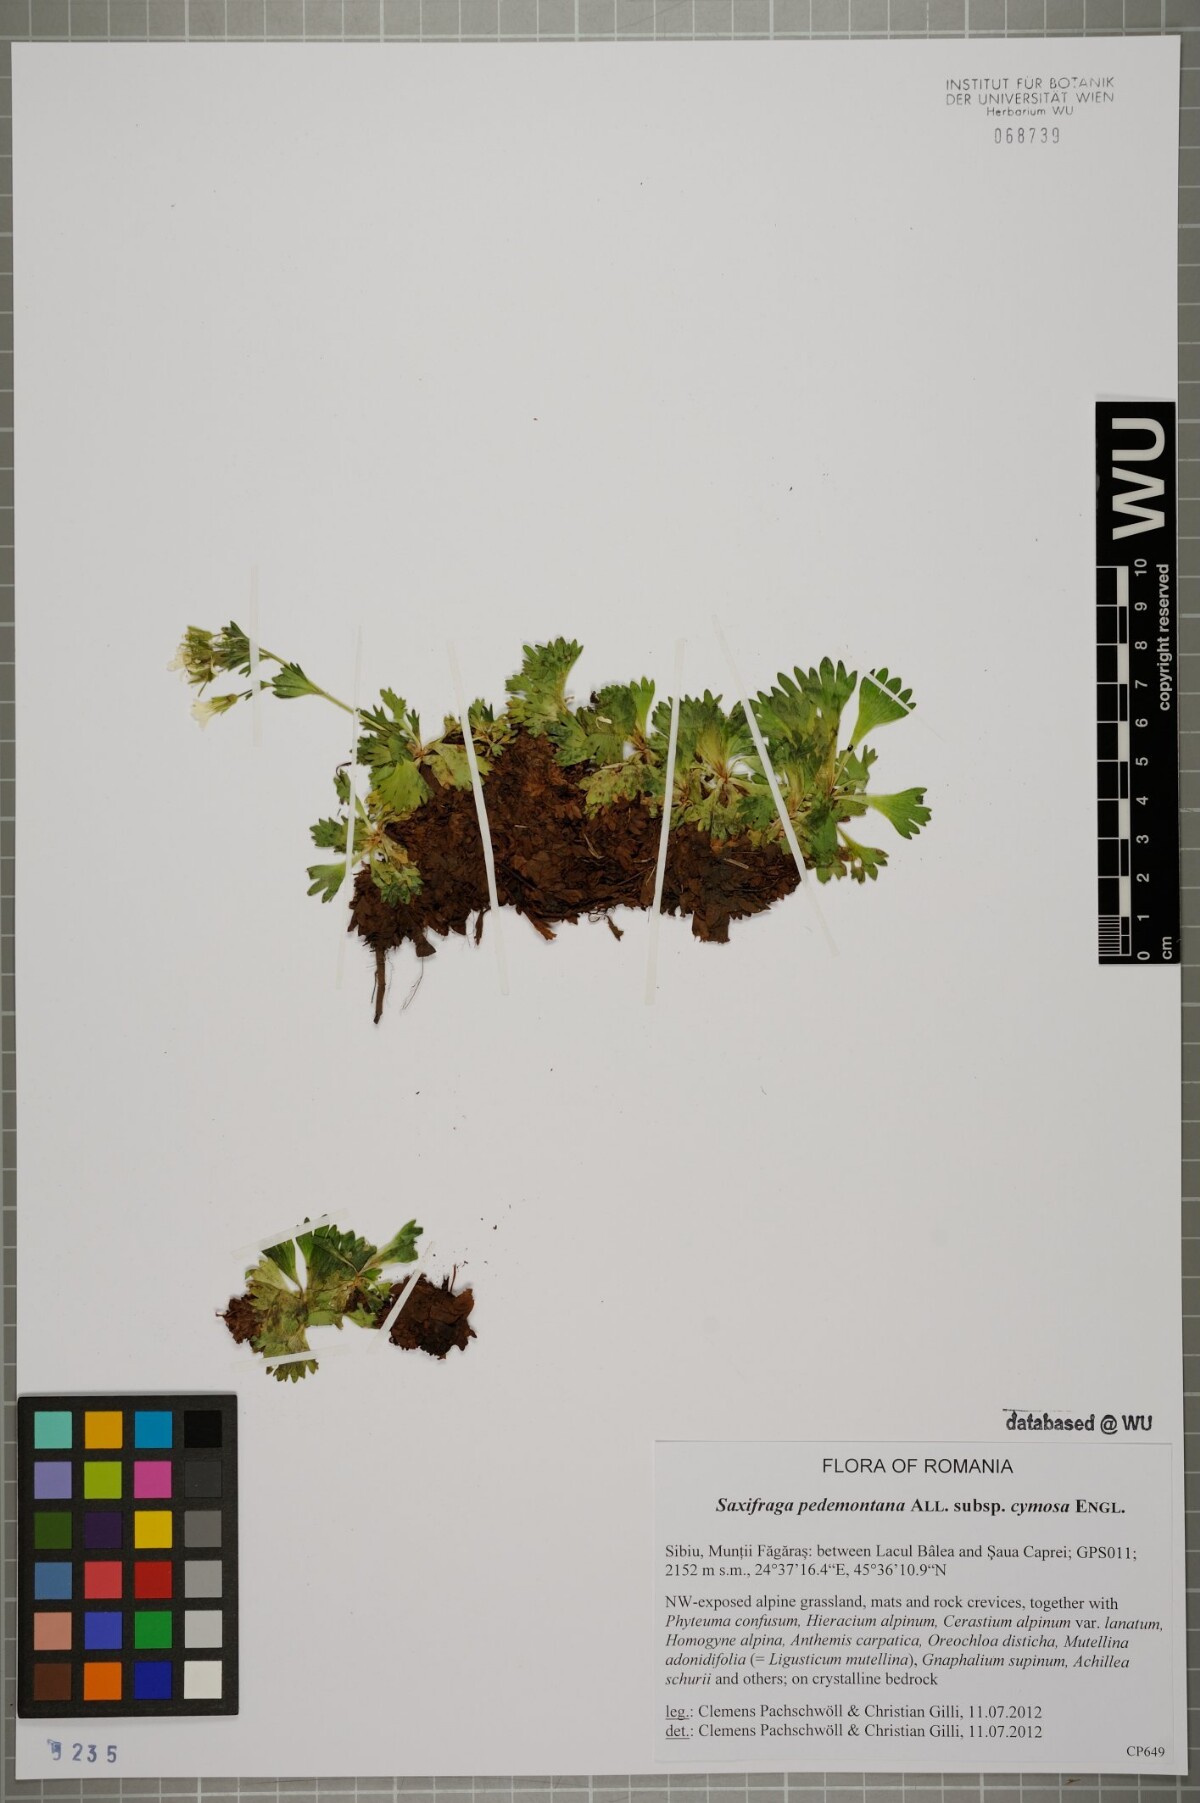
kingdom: Plantae
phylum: Tracheophyta
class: Magnoliopsida
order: Saxifragales
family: Saxifragaceae
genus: Saxifraga
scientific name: Saxifraga pedemontana
